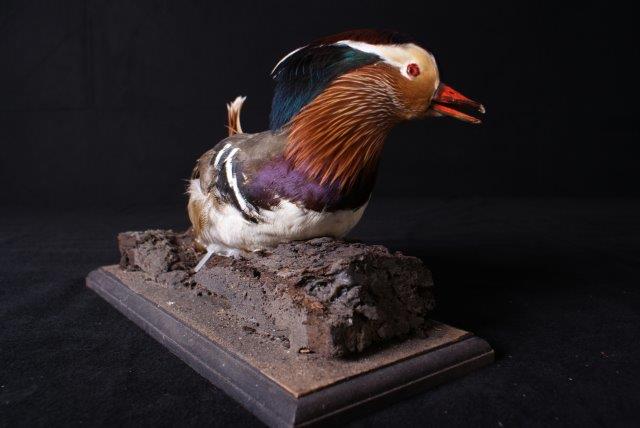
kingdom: Animalia
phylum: Chordata
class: Aves
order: Anseriformes
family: Anatidae
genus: Aix
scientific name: Aix galericulata
